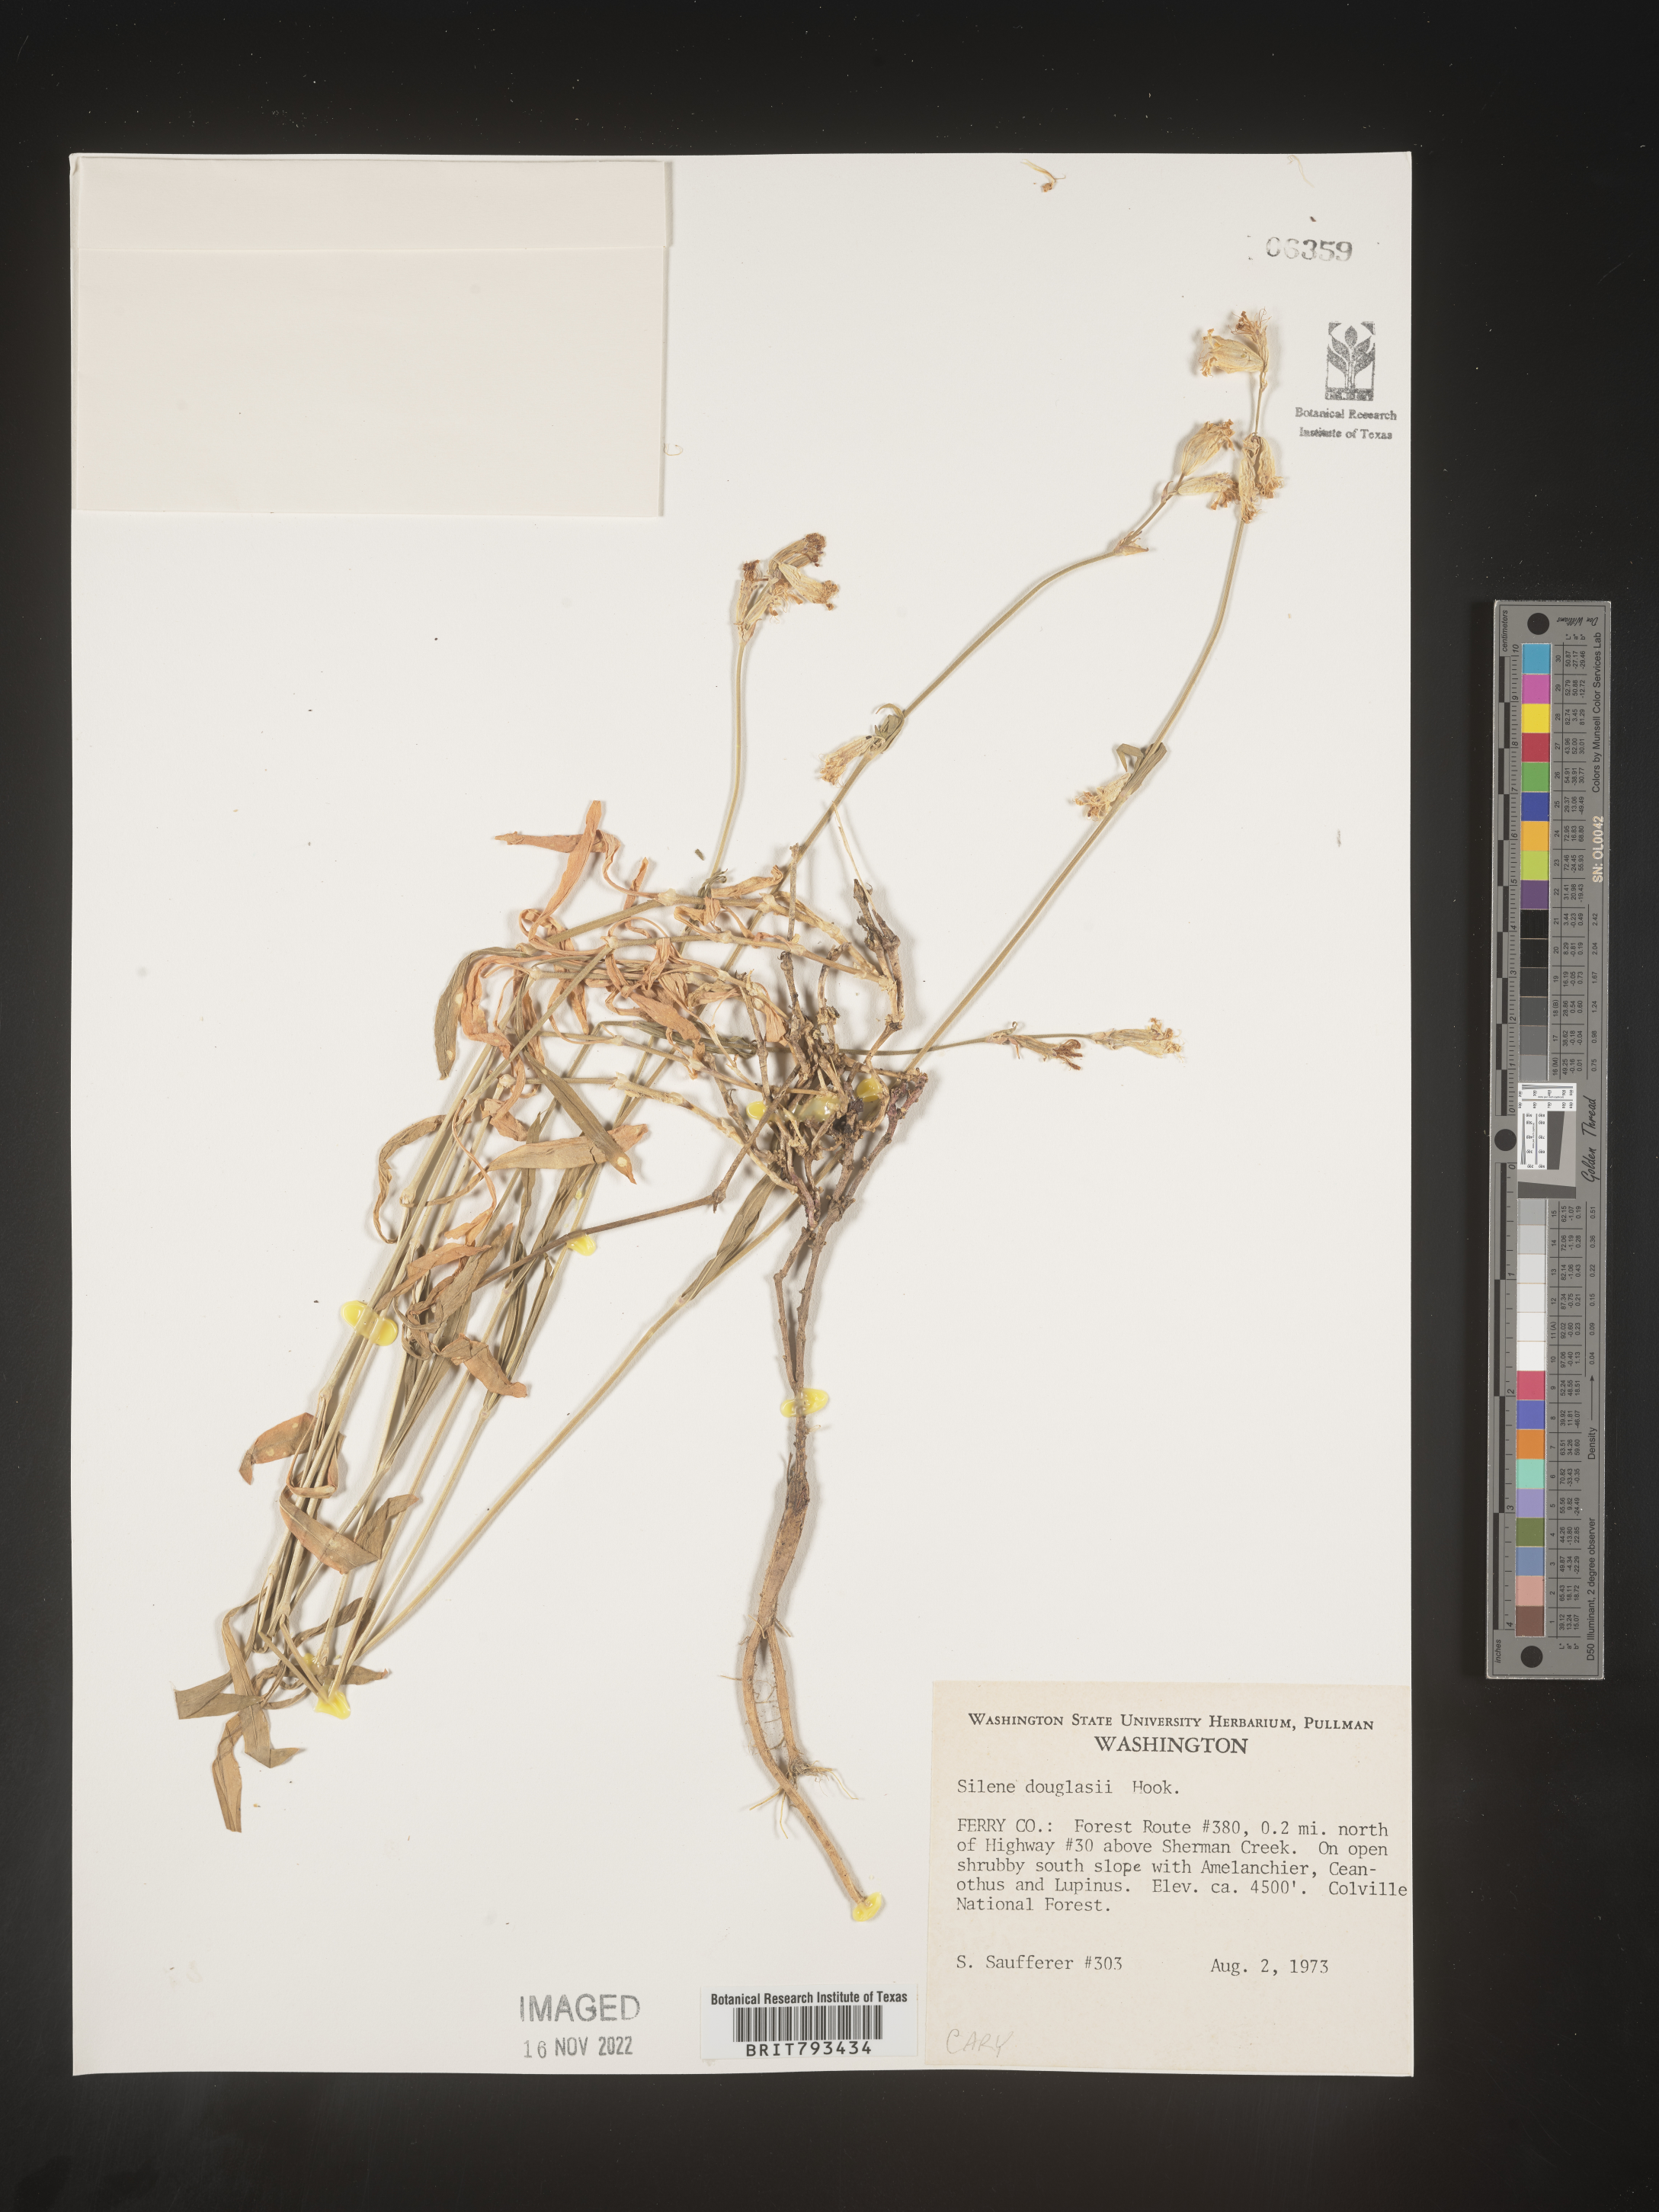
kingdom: Plantae
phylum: Tracheophyta
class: Magnoliopsida
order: Caryophyllales
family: Caryophyllaceae
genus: Silene
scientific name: Silene douglasii
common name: Douglas's catchfly
